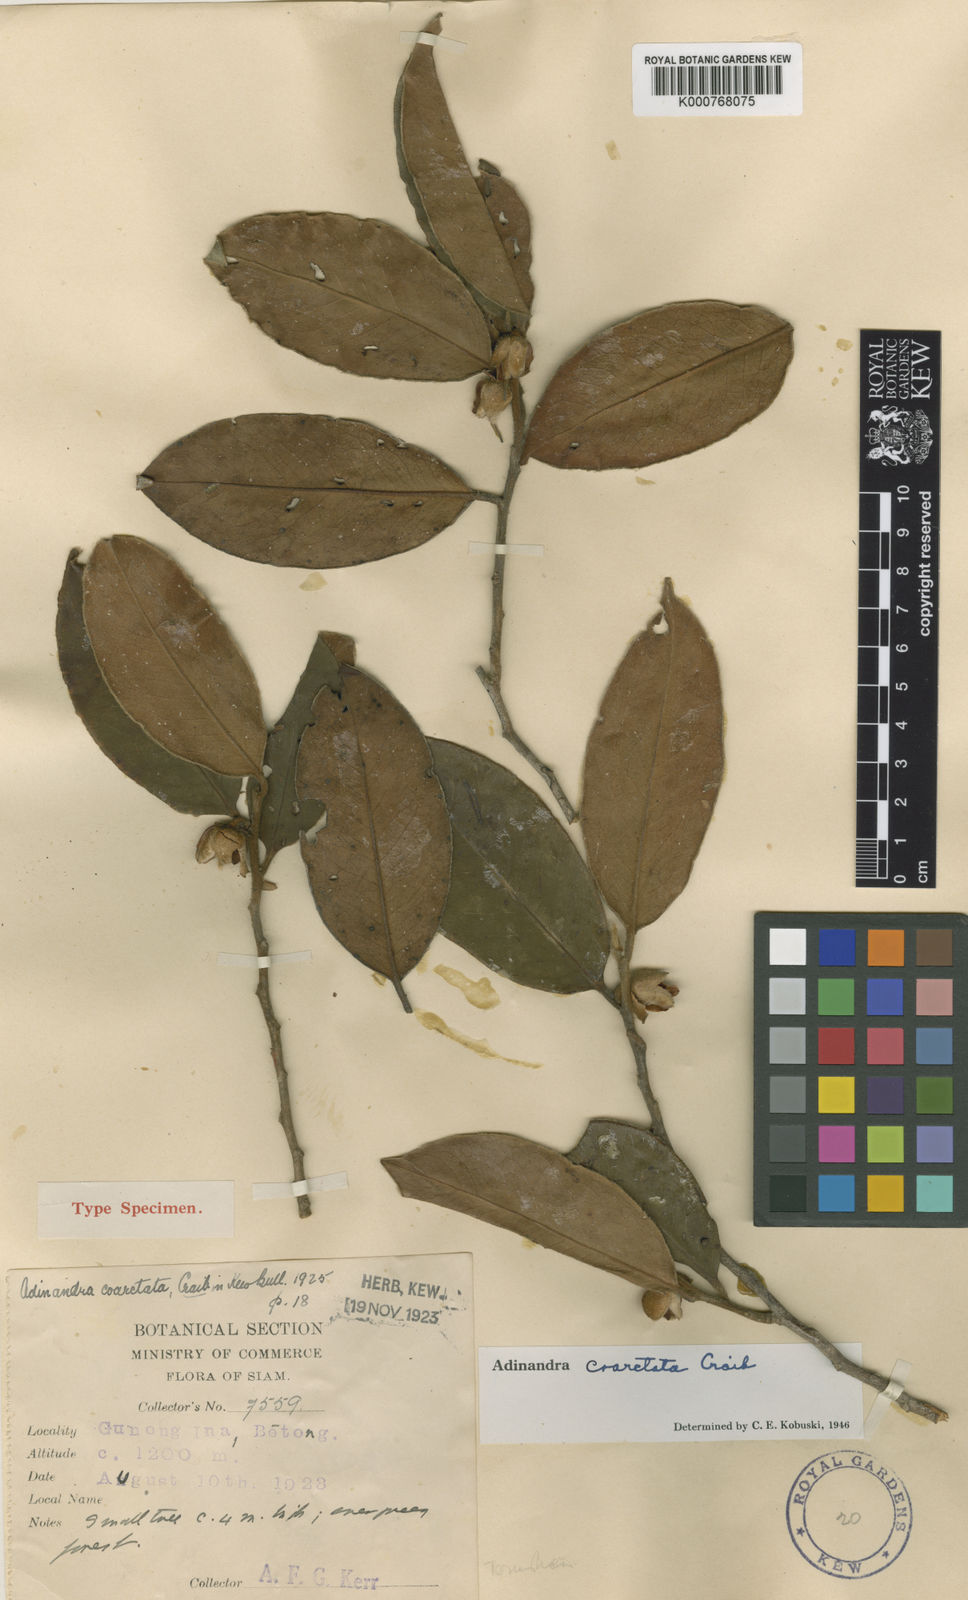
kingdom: Plantae
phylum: Tracheophyta
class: Magnoliopsida
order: Ericales
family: Pentaphylacaceae
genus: Adinandra
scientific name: Adinandra oblonga
